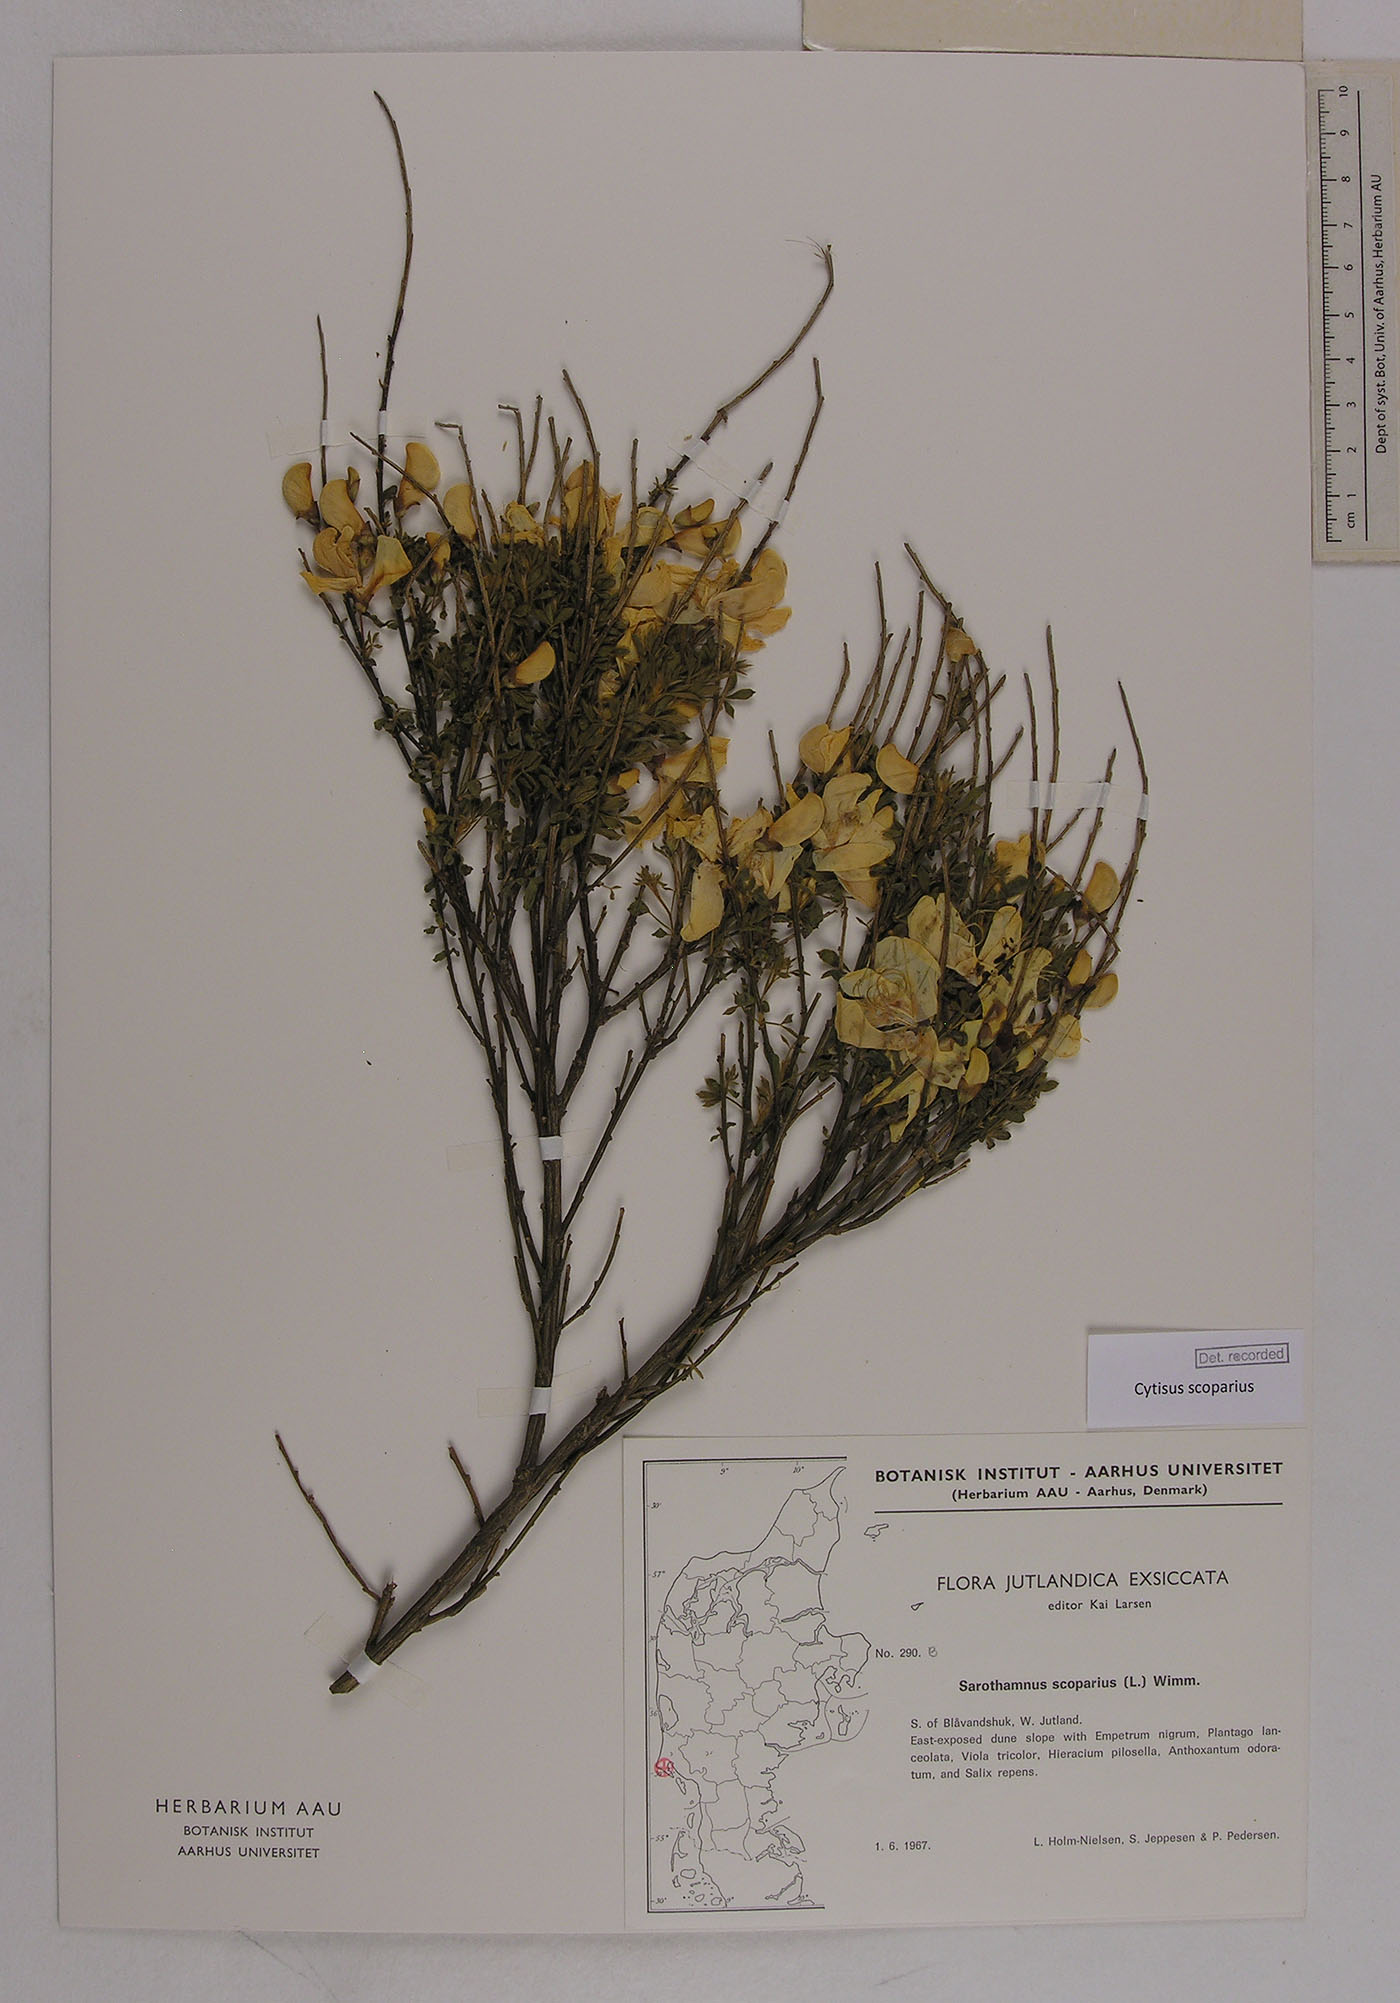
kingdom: Plantae
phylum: Tracheophyta
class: Magnoliopsida
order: Fabales
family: Fabaceae
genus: Cytisus
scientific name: Cytisus scoparius
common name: Scotch broom
